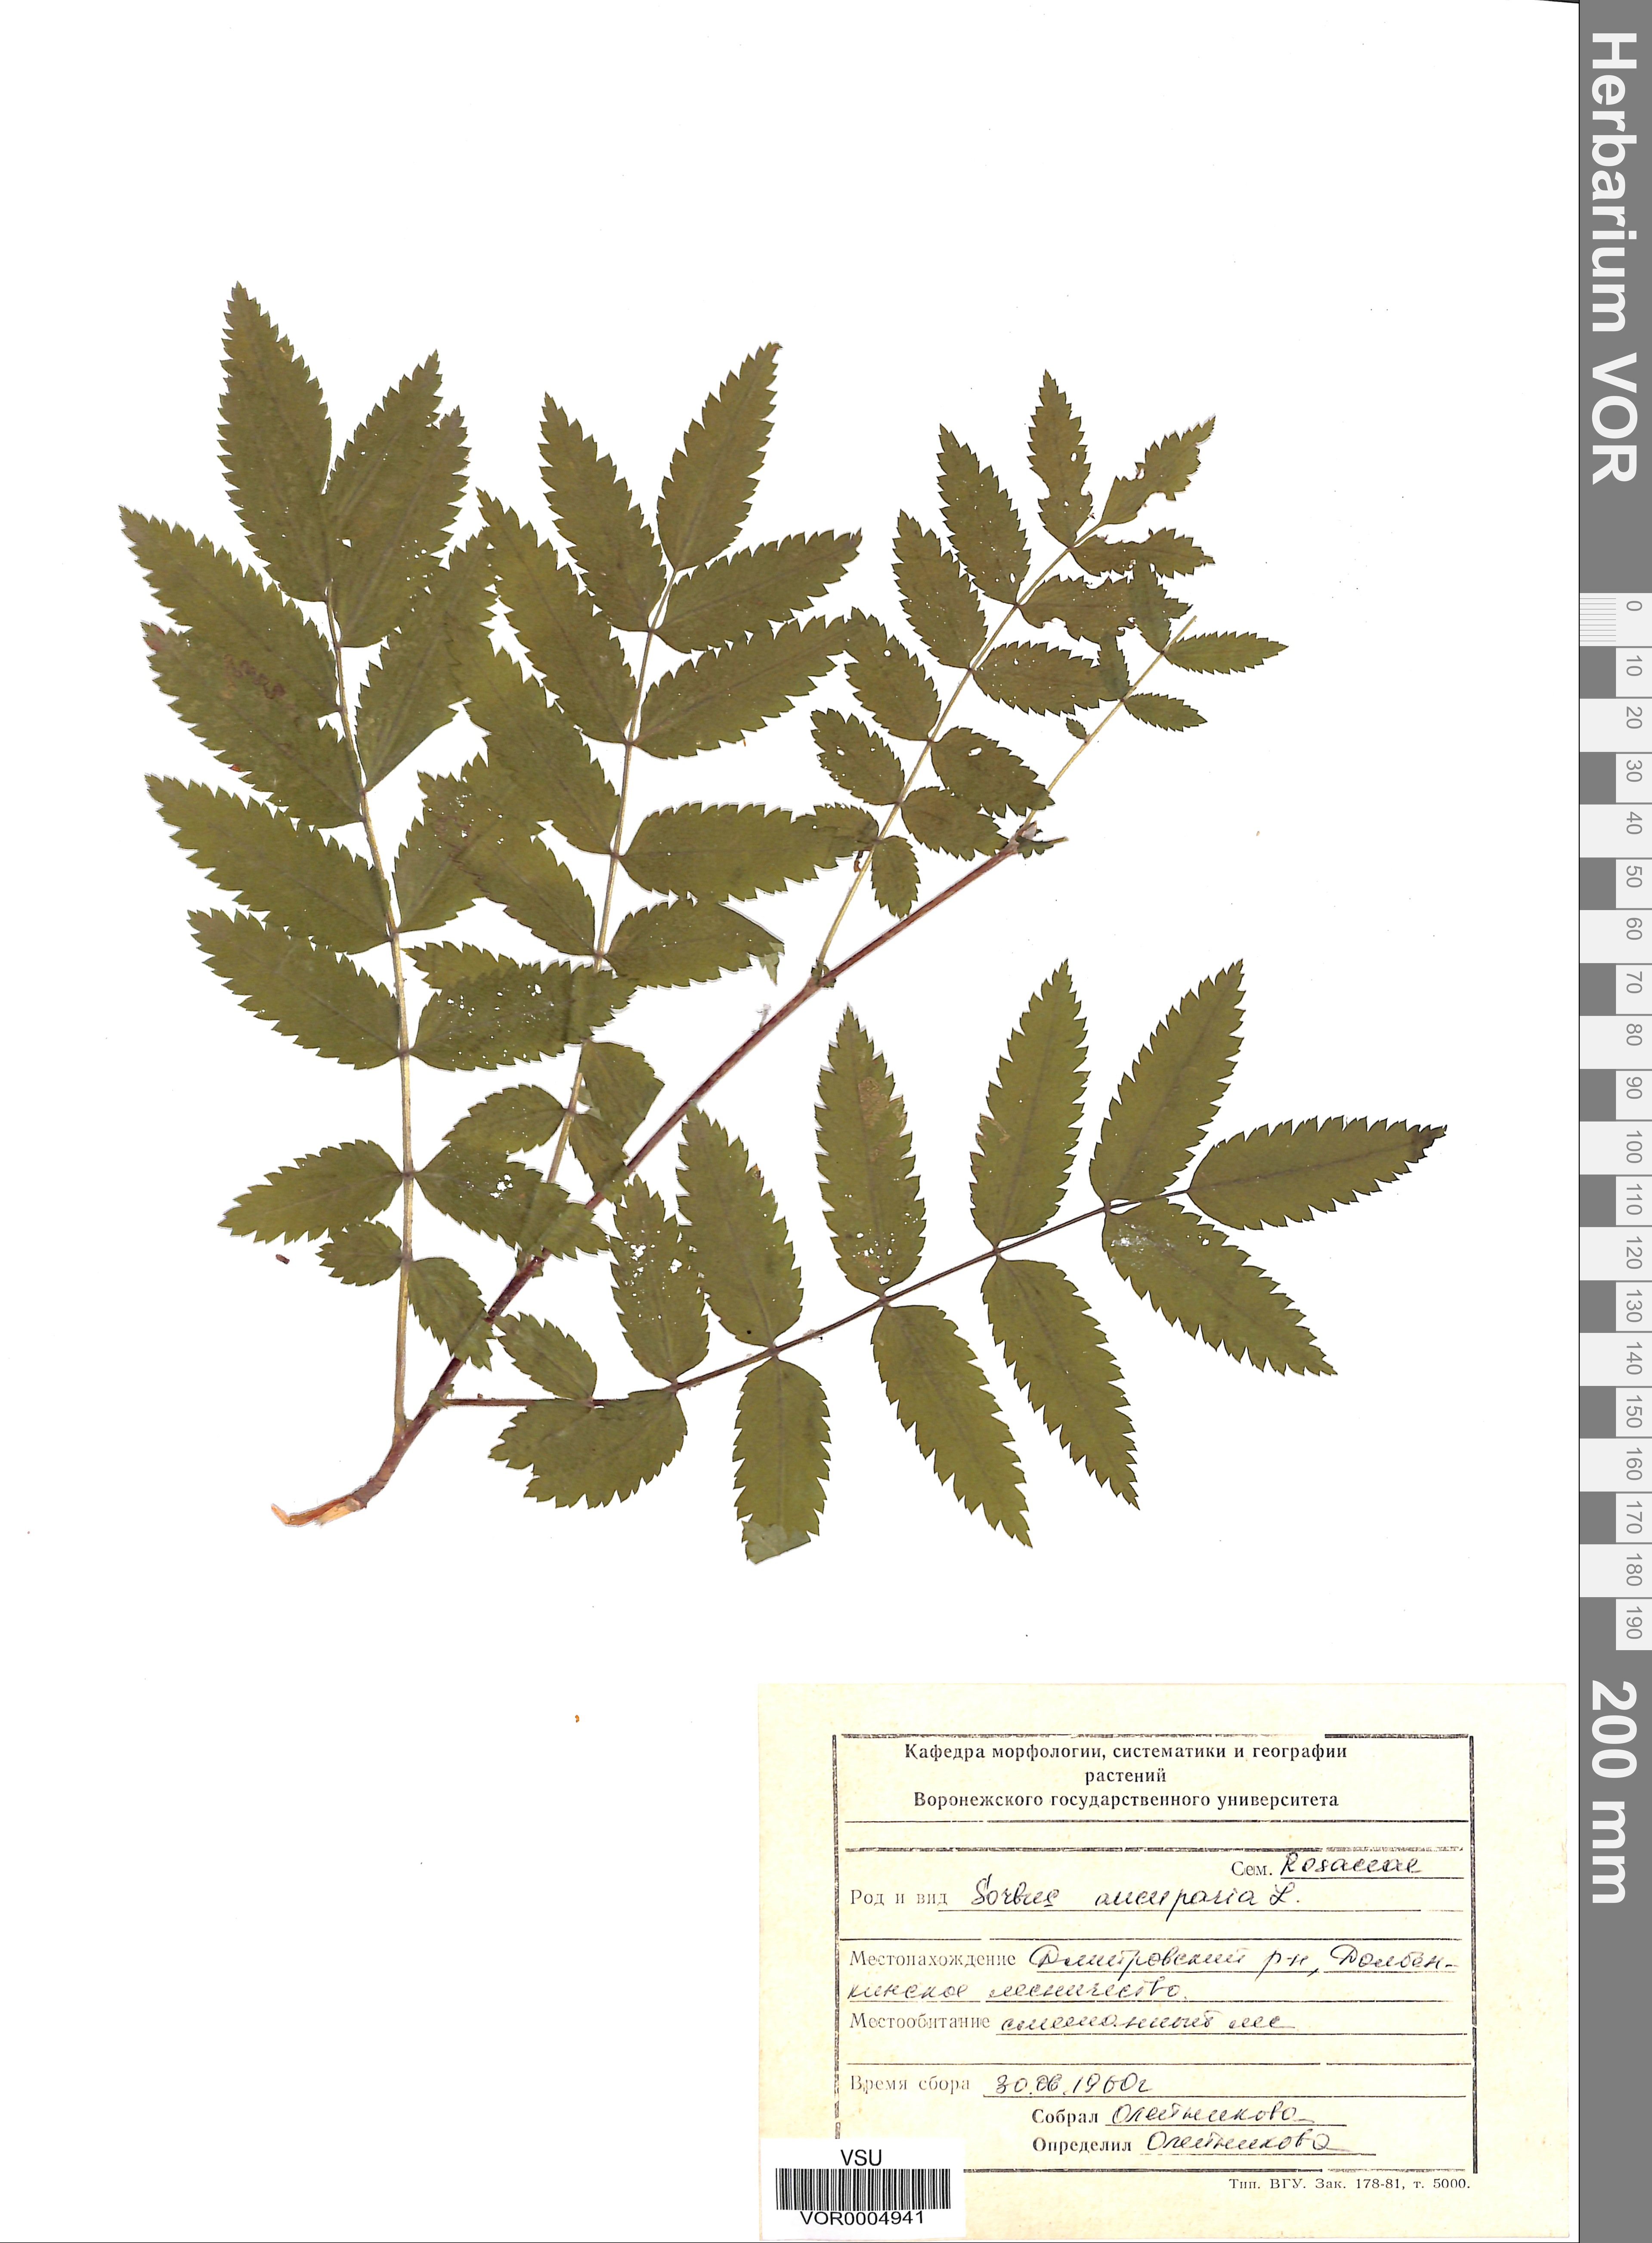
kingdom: Plantae
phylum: Tracheophyta
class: Magnoliopsida
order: Rosales
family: Rosaceae
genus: Sorbus
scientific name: Sorbus aucuparia
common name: Rowan
